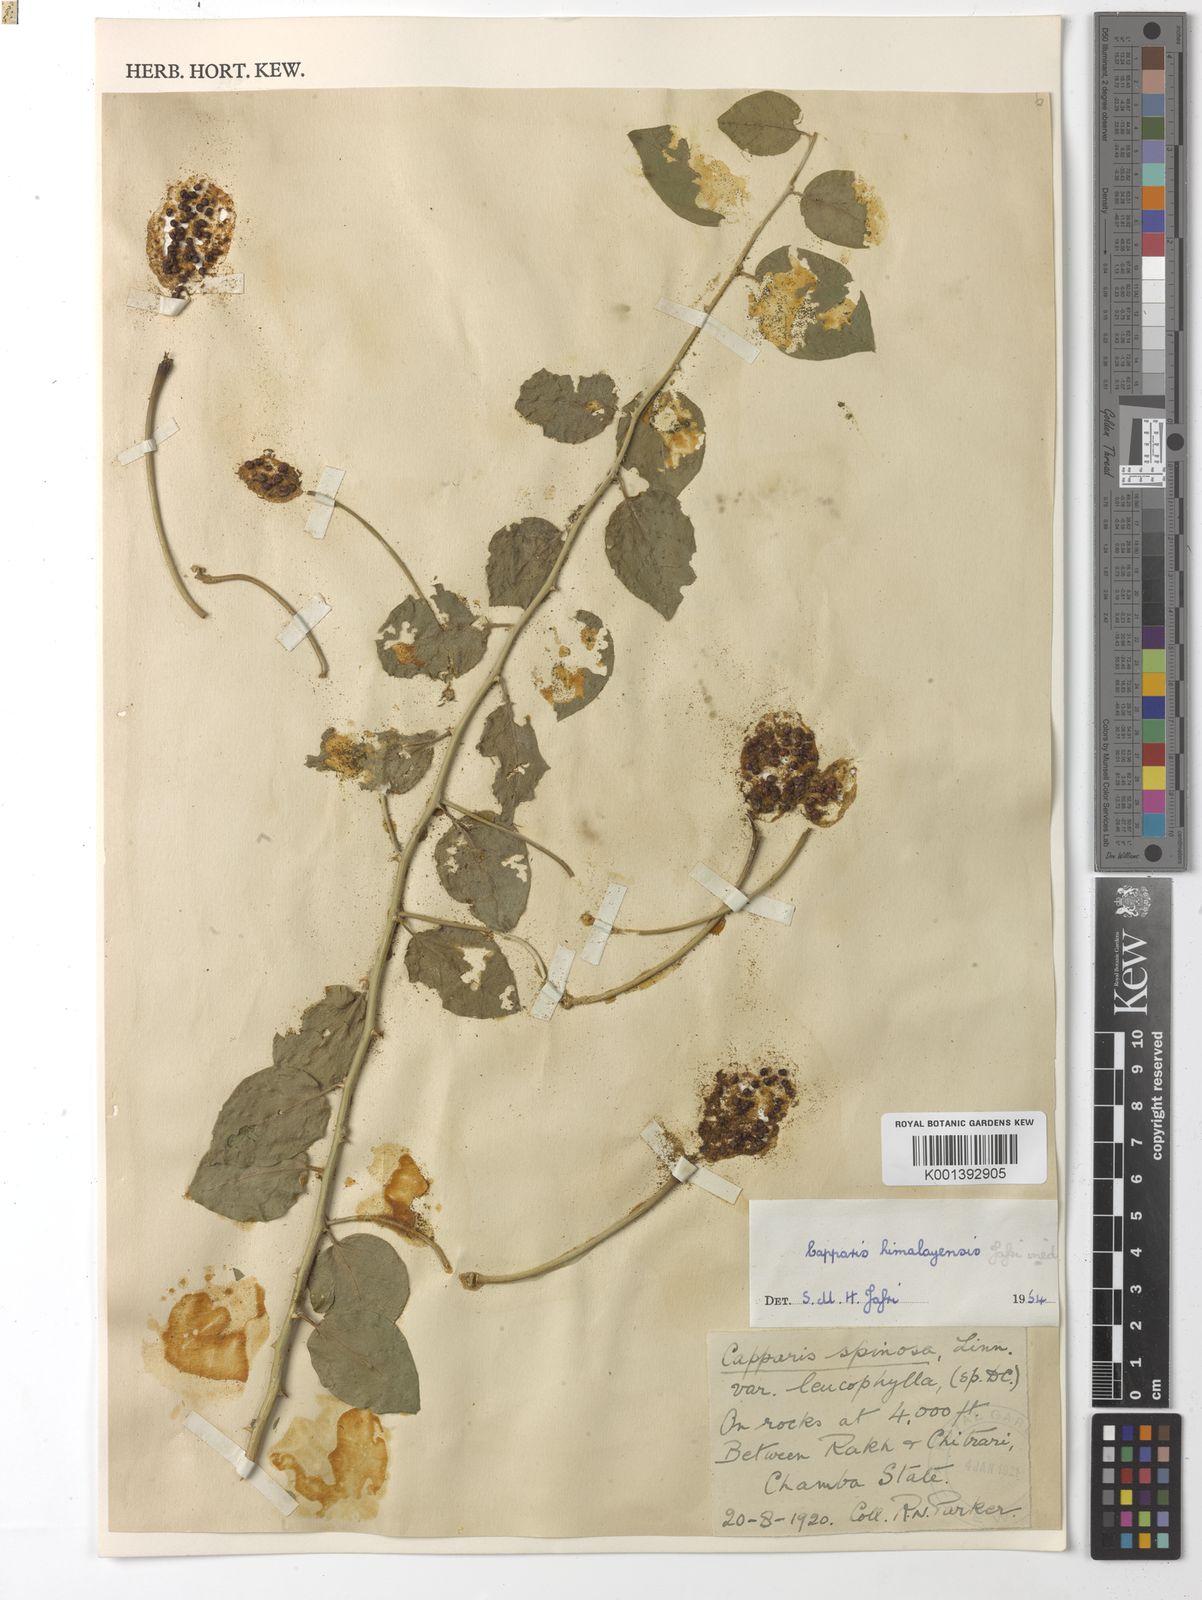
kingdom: Plantae
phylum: Tracheophyta
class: Magnoliopsida
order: Brassicales
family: Capparaceae
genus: Capparis
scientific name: Capparis spinosa
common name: Caper
